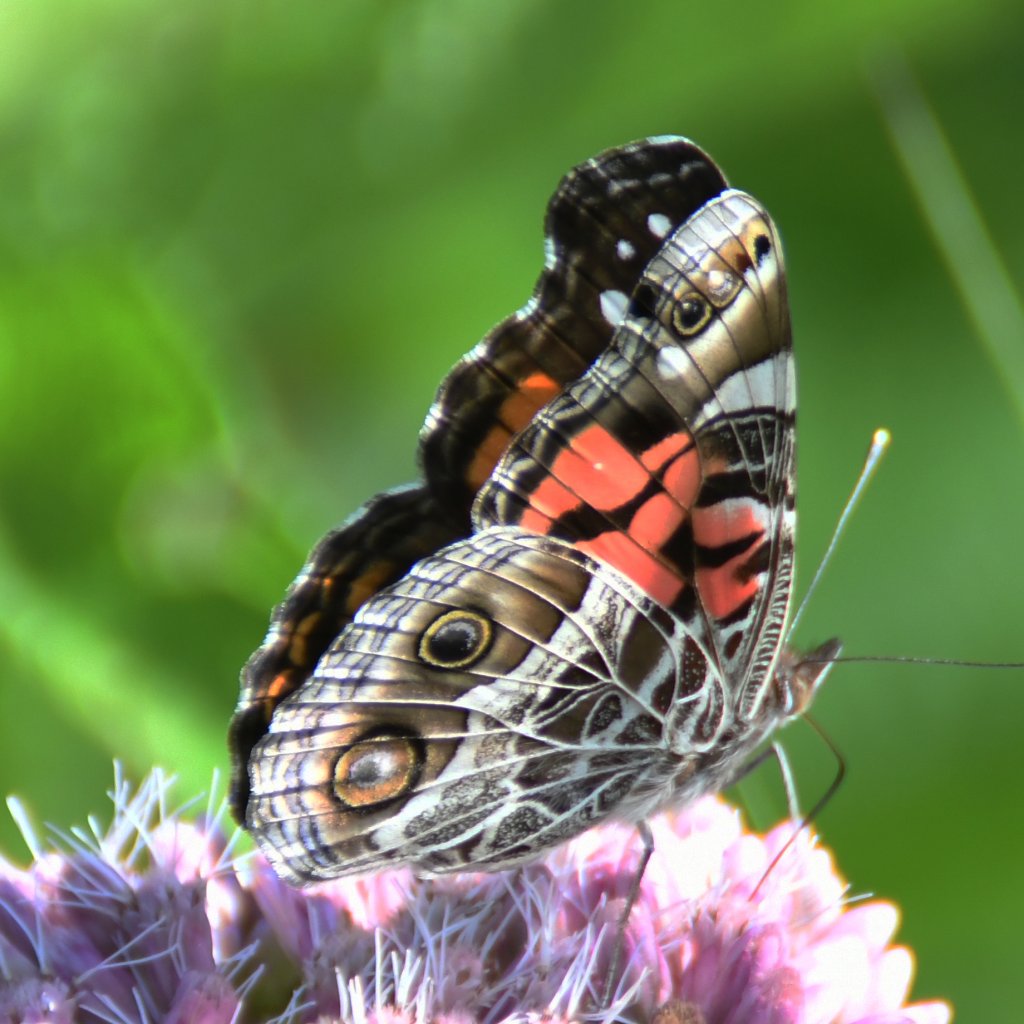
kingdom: Animalia
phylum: Arthropoda
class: Insecta
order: Lepidoptera
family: Nymphalidae
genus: Vanessa
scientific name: Vanessa virginiensis
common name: American Lady
